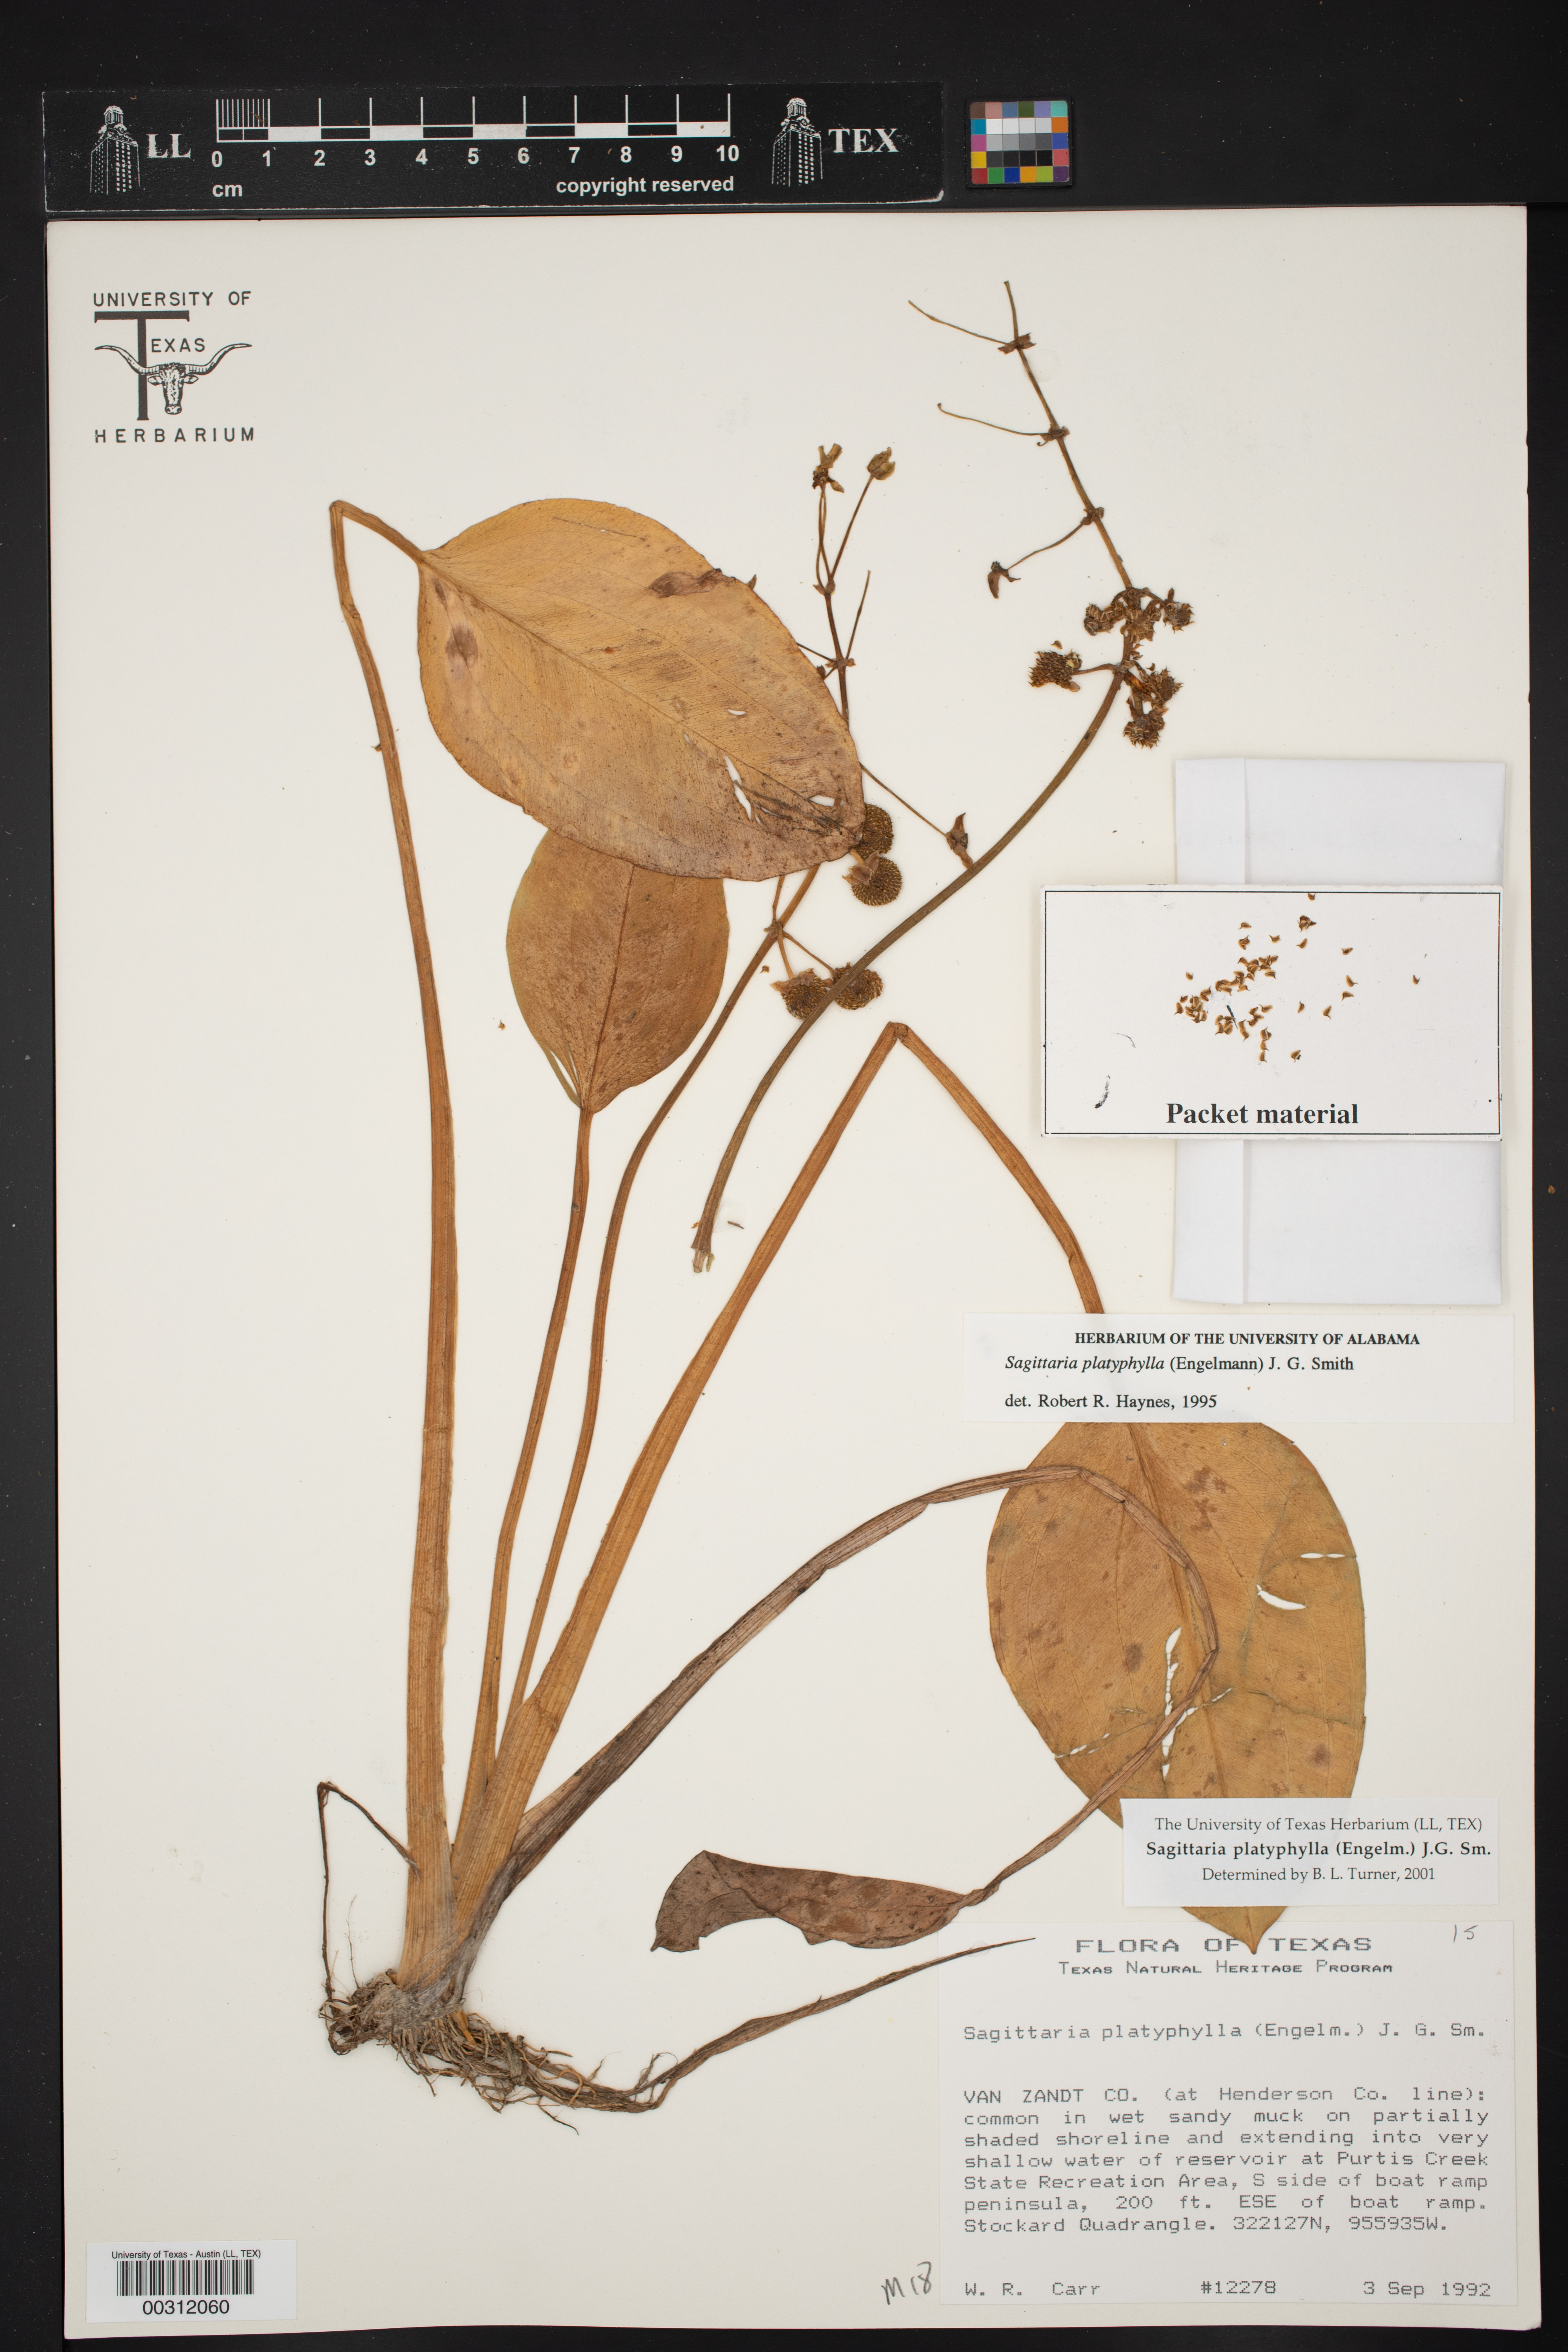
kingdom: Plantae
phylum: Tracheophyta
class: Liliopsida
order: Alismatales
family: Alismataceae
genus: Sagittaria
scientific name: Sagittaria platyphylla
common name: Broad-leaf arrowhead
